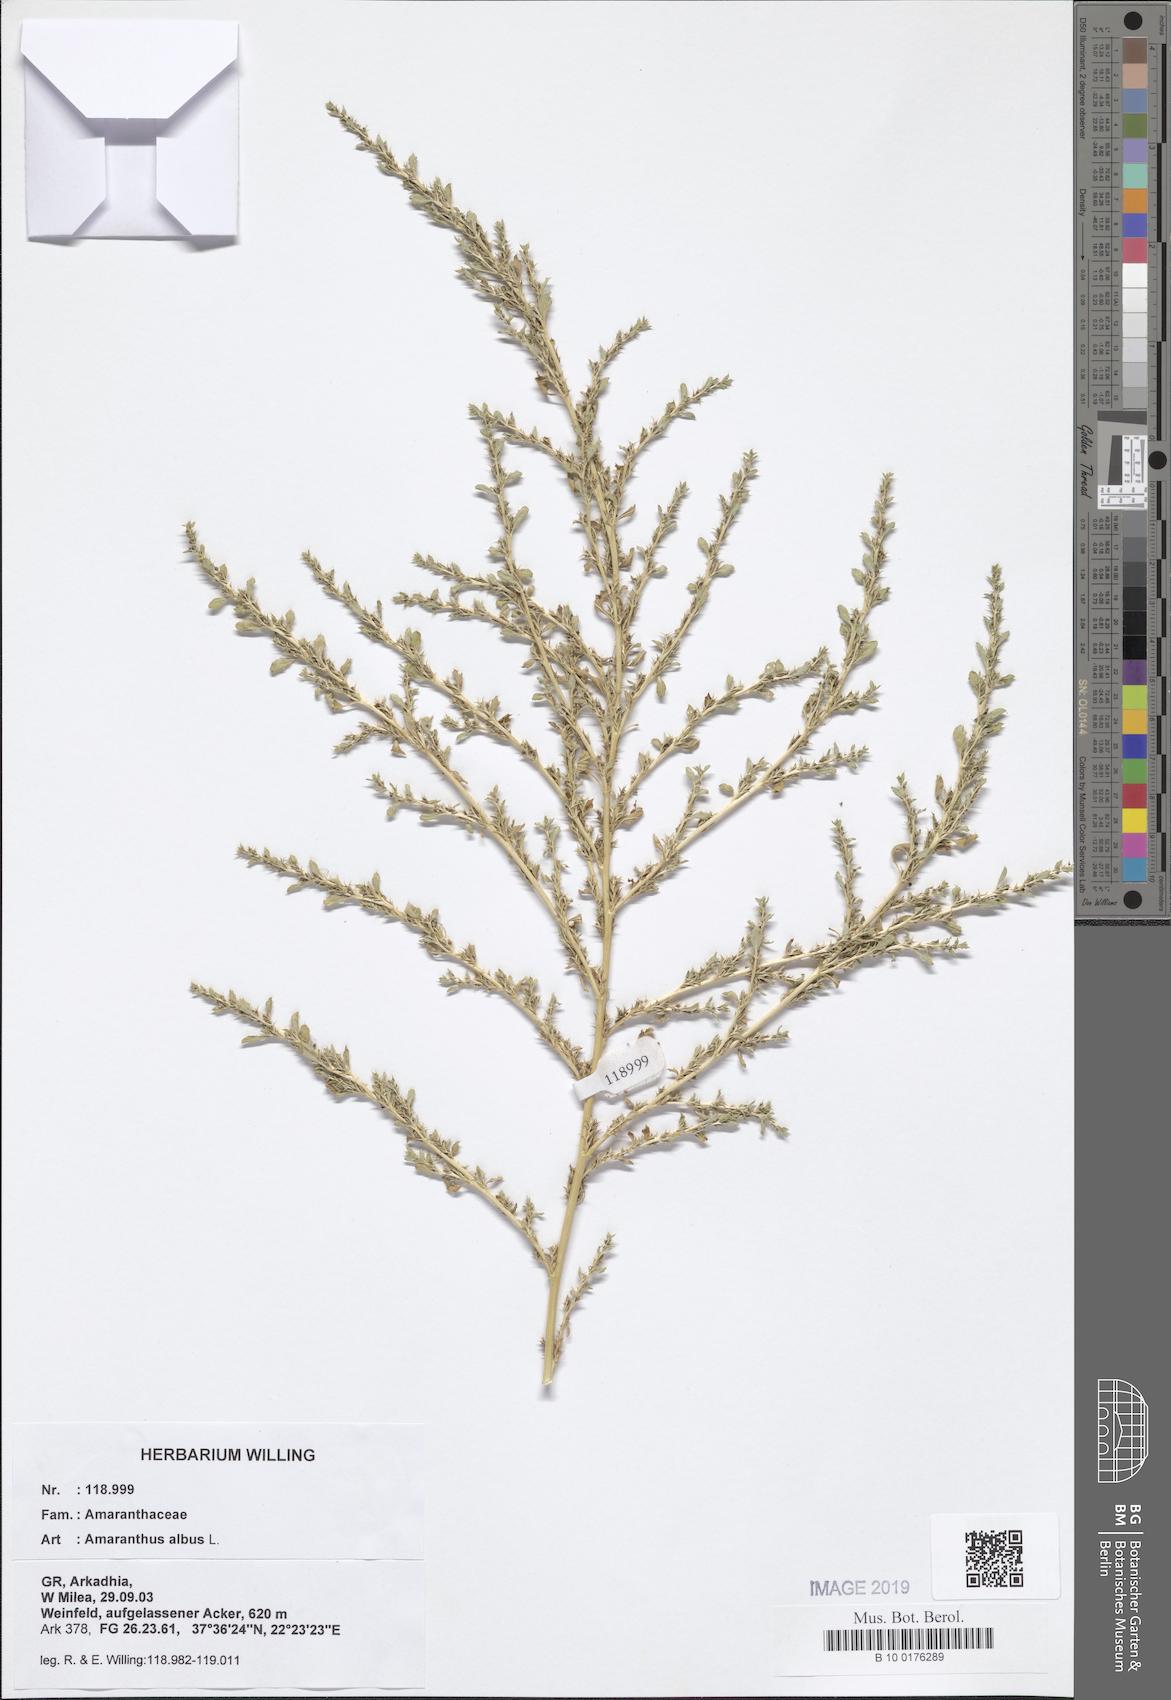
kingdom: Plantae
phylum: Tracheophyta
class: Magnoliopsida
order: Caryophyllales
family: Amaranthaceae
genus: Amaranthus
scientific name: Amaranthus albus
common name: White pigweed
